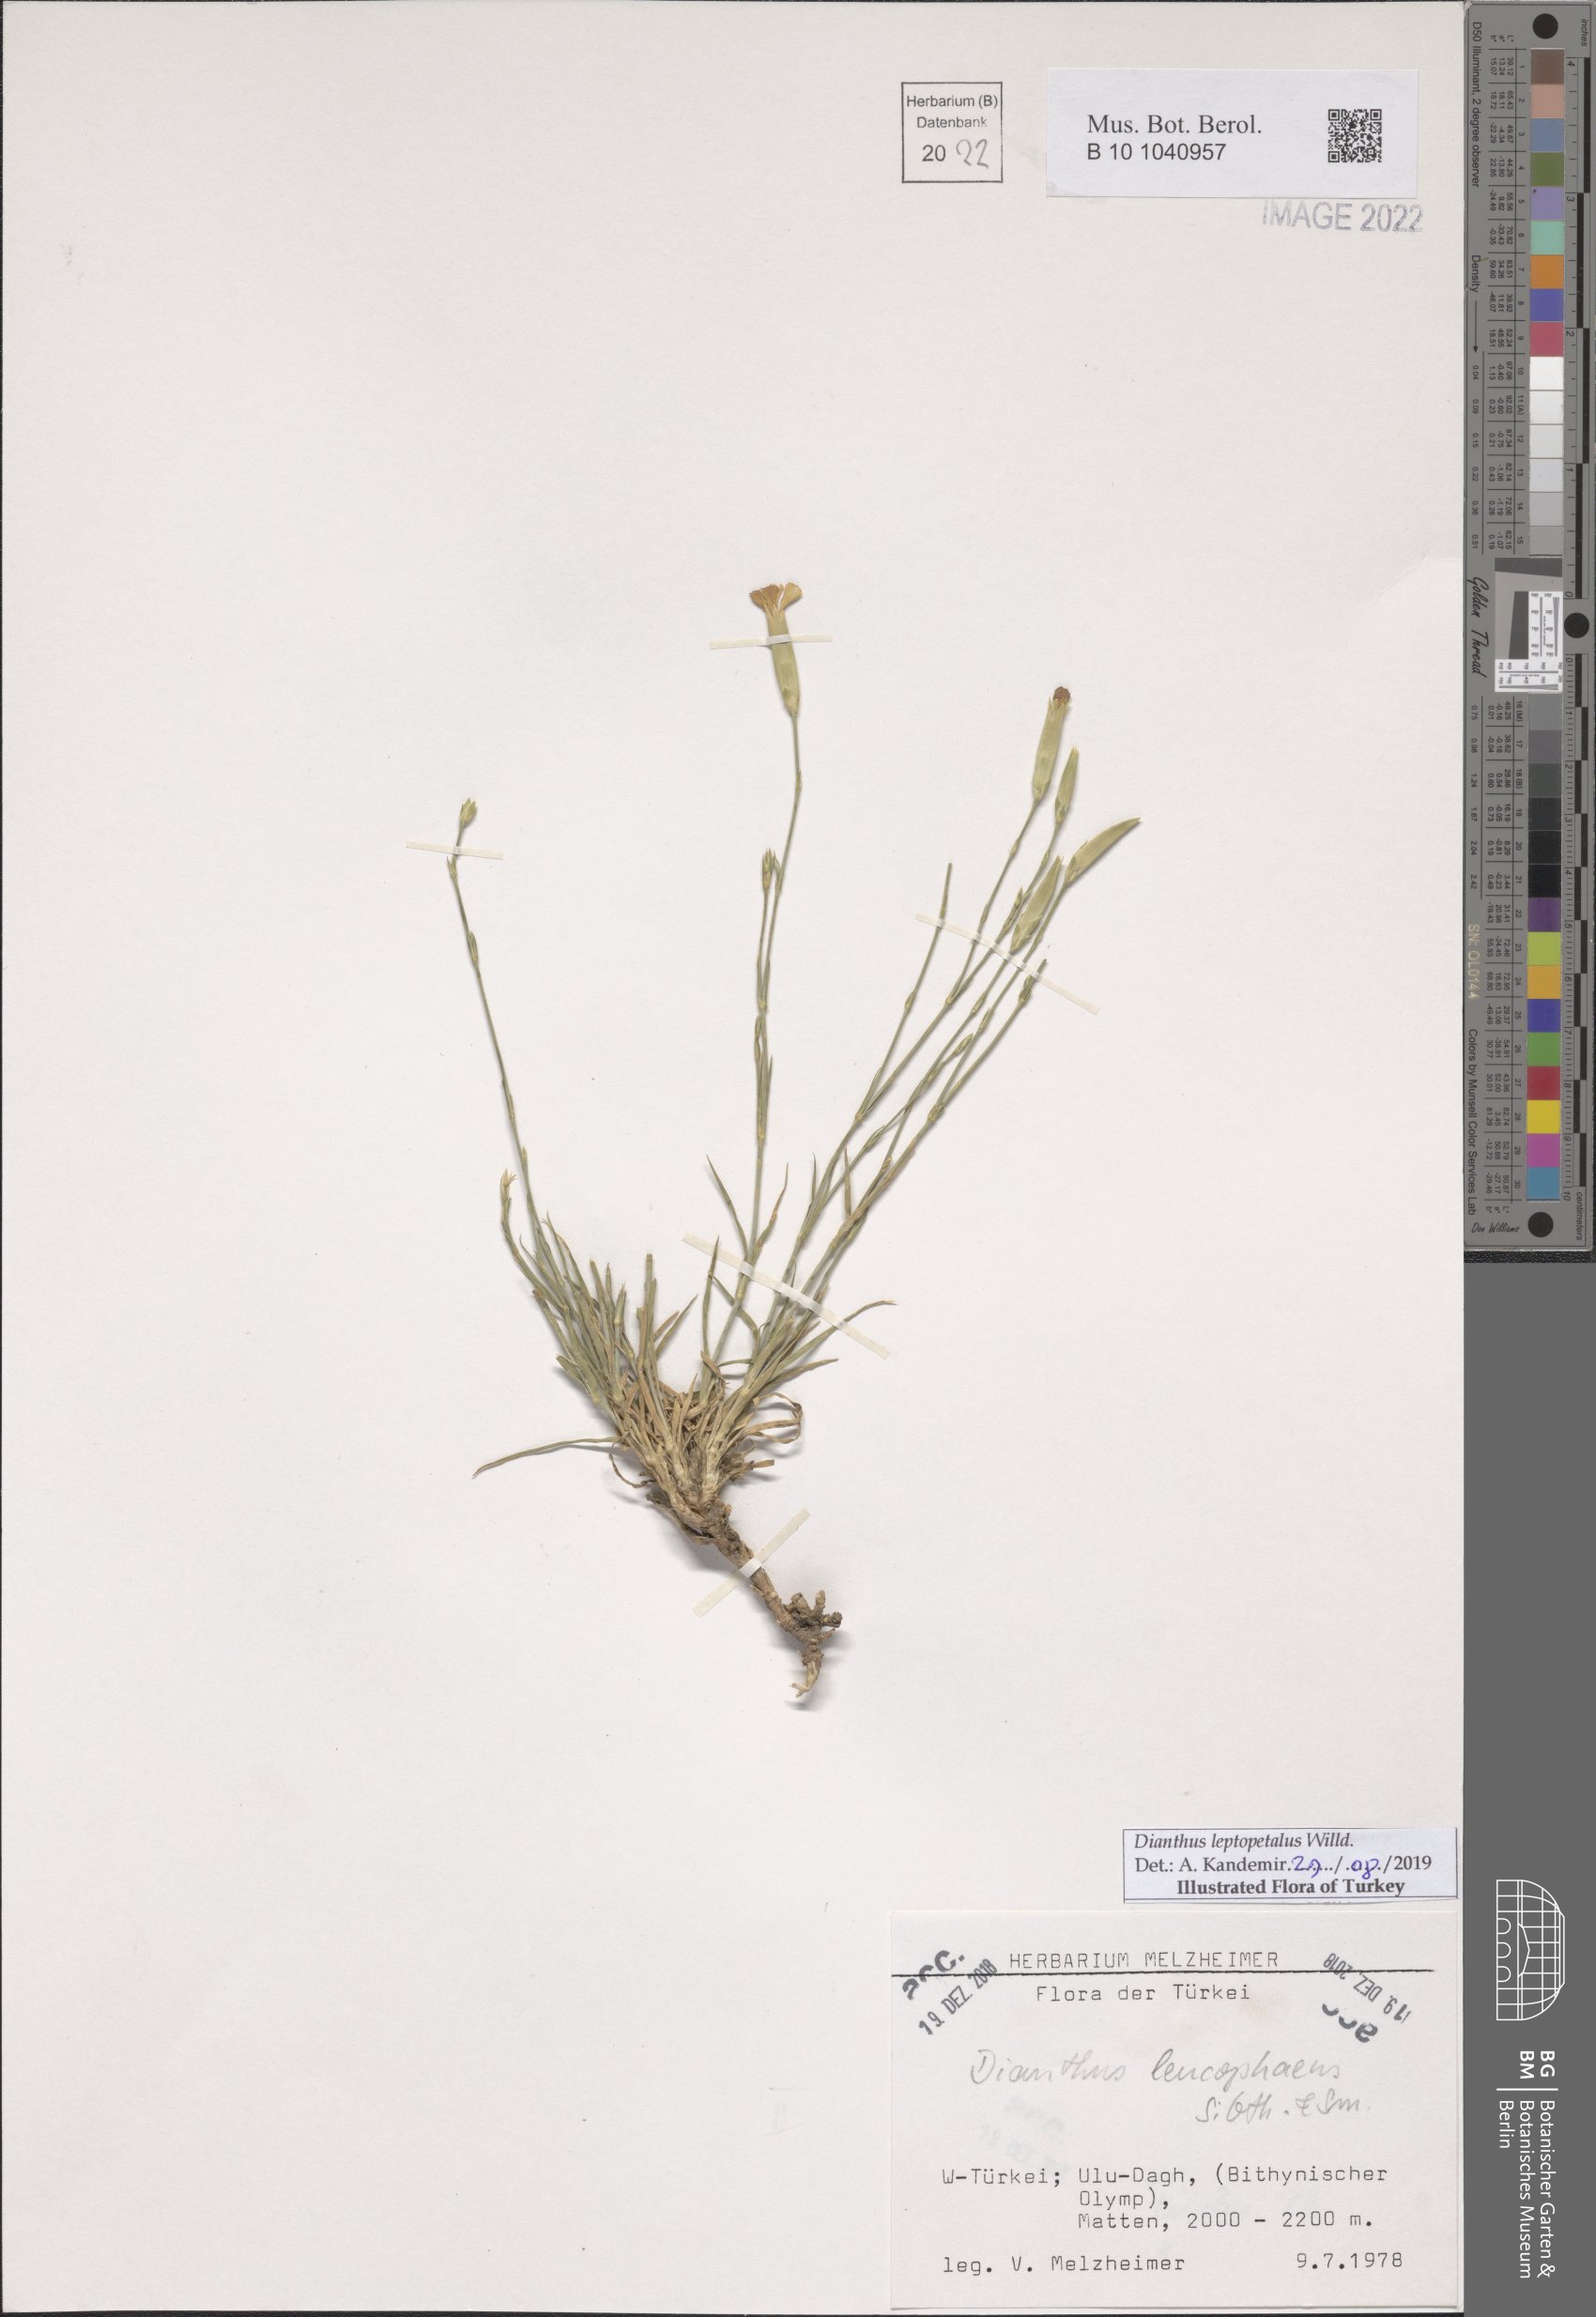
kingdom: Plantae
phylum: Tracheophyta
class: Magnoliopsida
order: Caryophyllales
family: Caryophyllaceae
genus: Dianthus
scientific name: Dianthus leptopetalus
